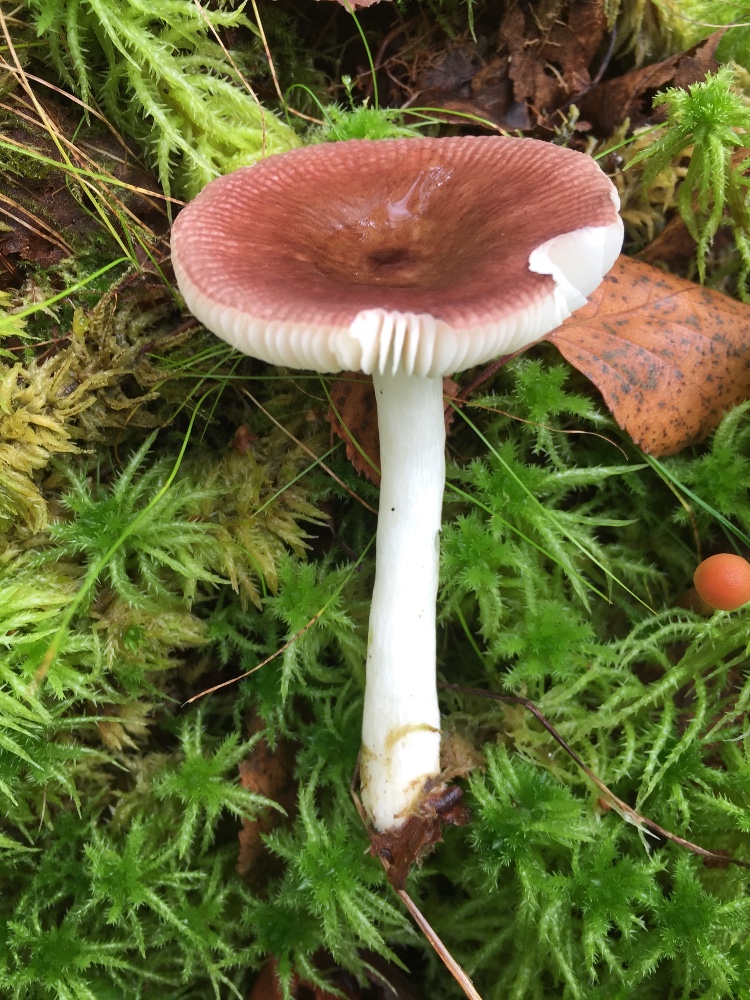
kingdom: Fungi
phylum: Basidiomycota
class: Agaricomycetes
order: Russulales
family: Russulaceae
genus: Russula
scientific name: Russula nitida
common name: året skørhat
